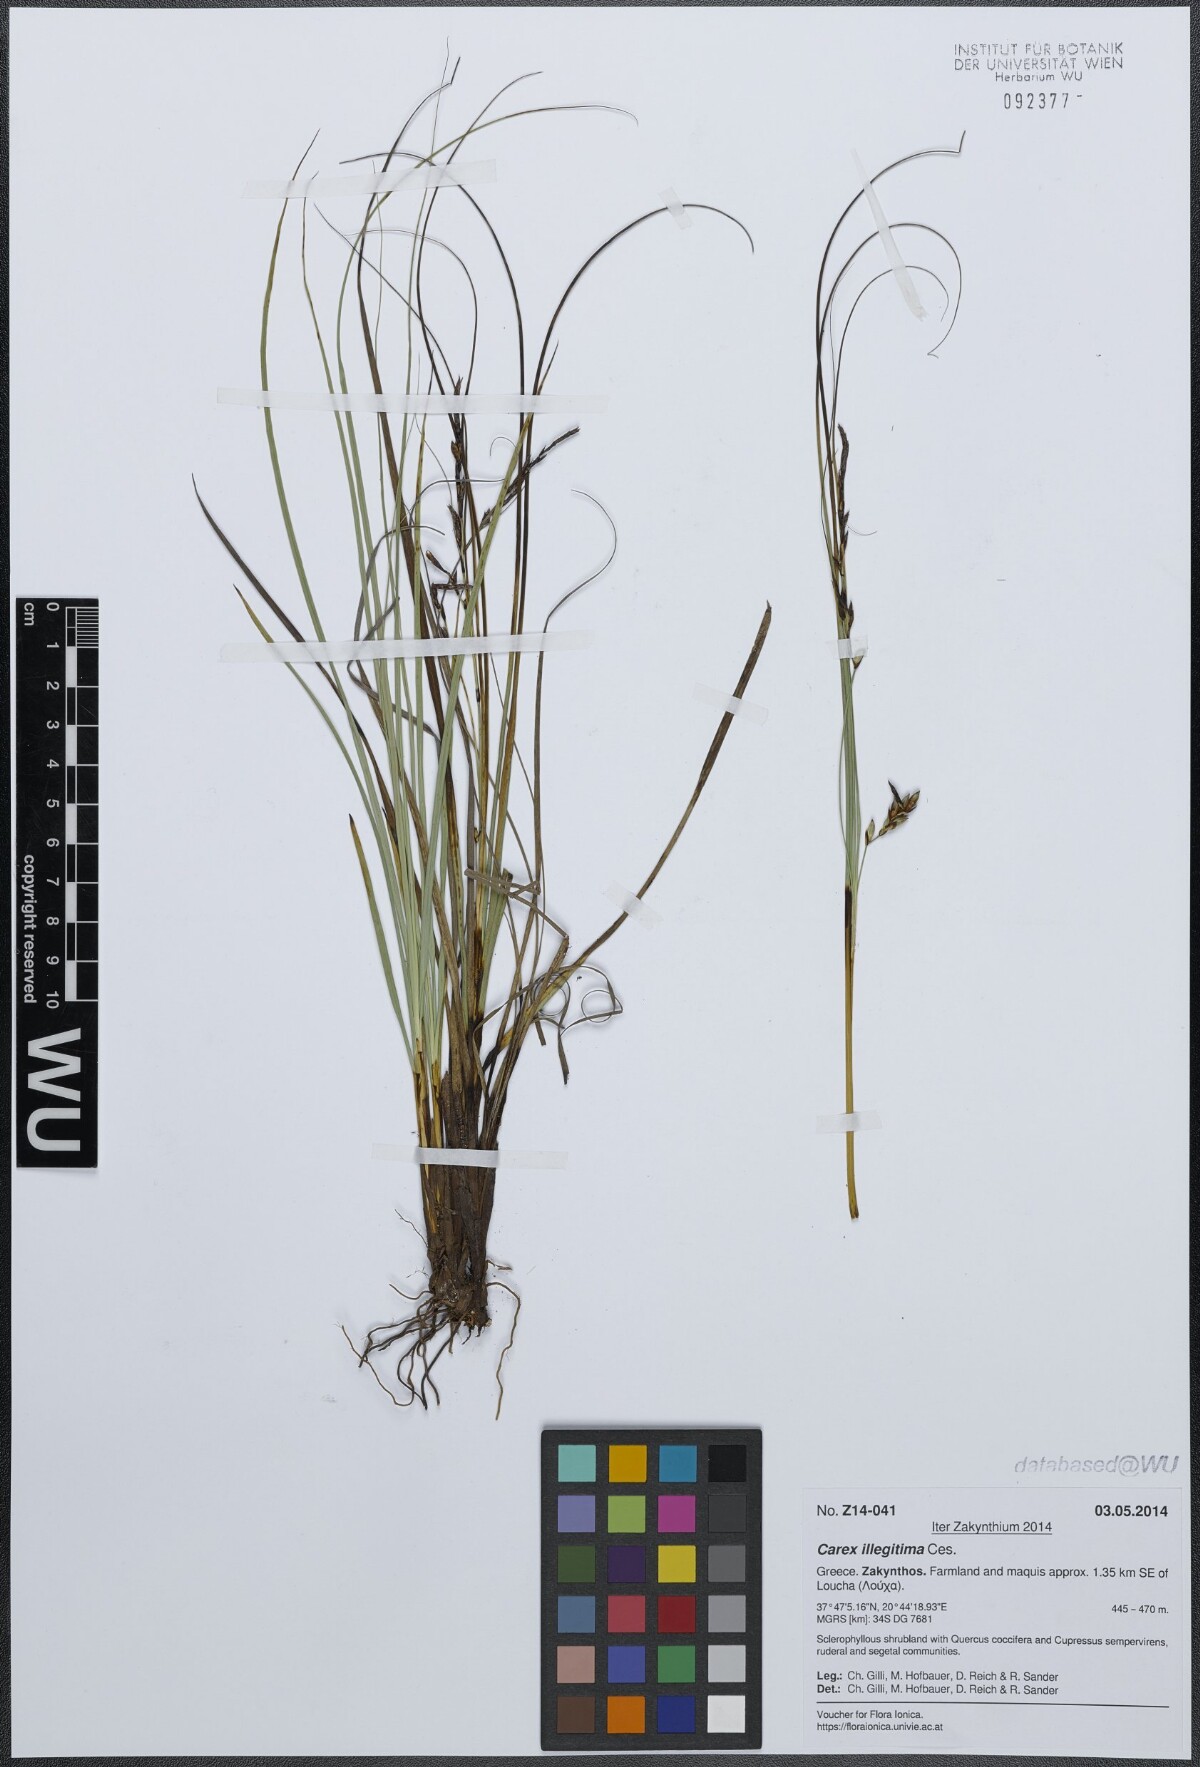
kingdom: Plantae
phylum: Tracheophyta
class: Liliopsida
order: Poales
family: Cyperaceae
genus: Carex
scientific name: Carex illegitima
